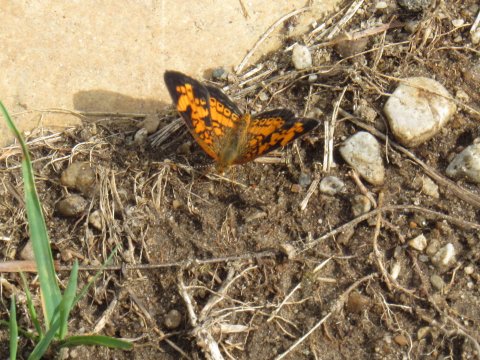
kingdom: Animalia
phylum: Arthropoda
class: Insecta
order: Lepidoptera
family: Nymphalidae
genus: Phyciodes
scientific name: Phyciodes tharos
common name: Pearl Crescent
